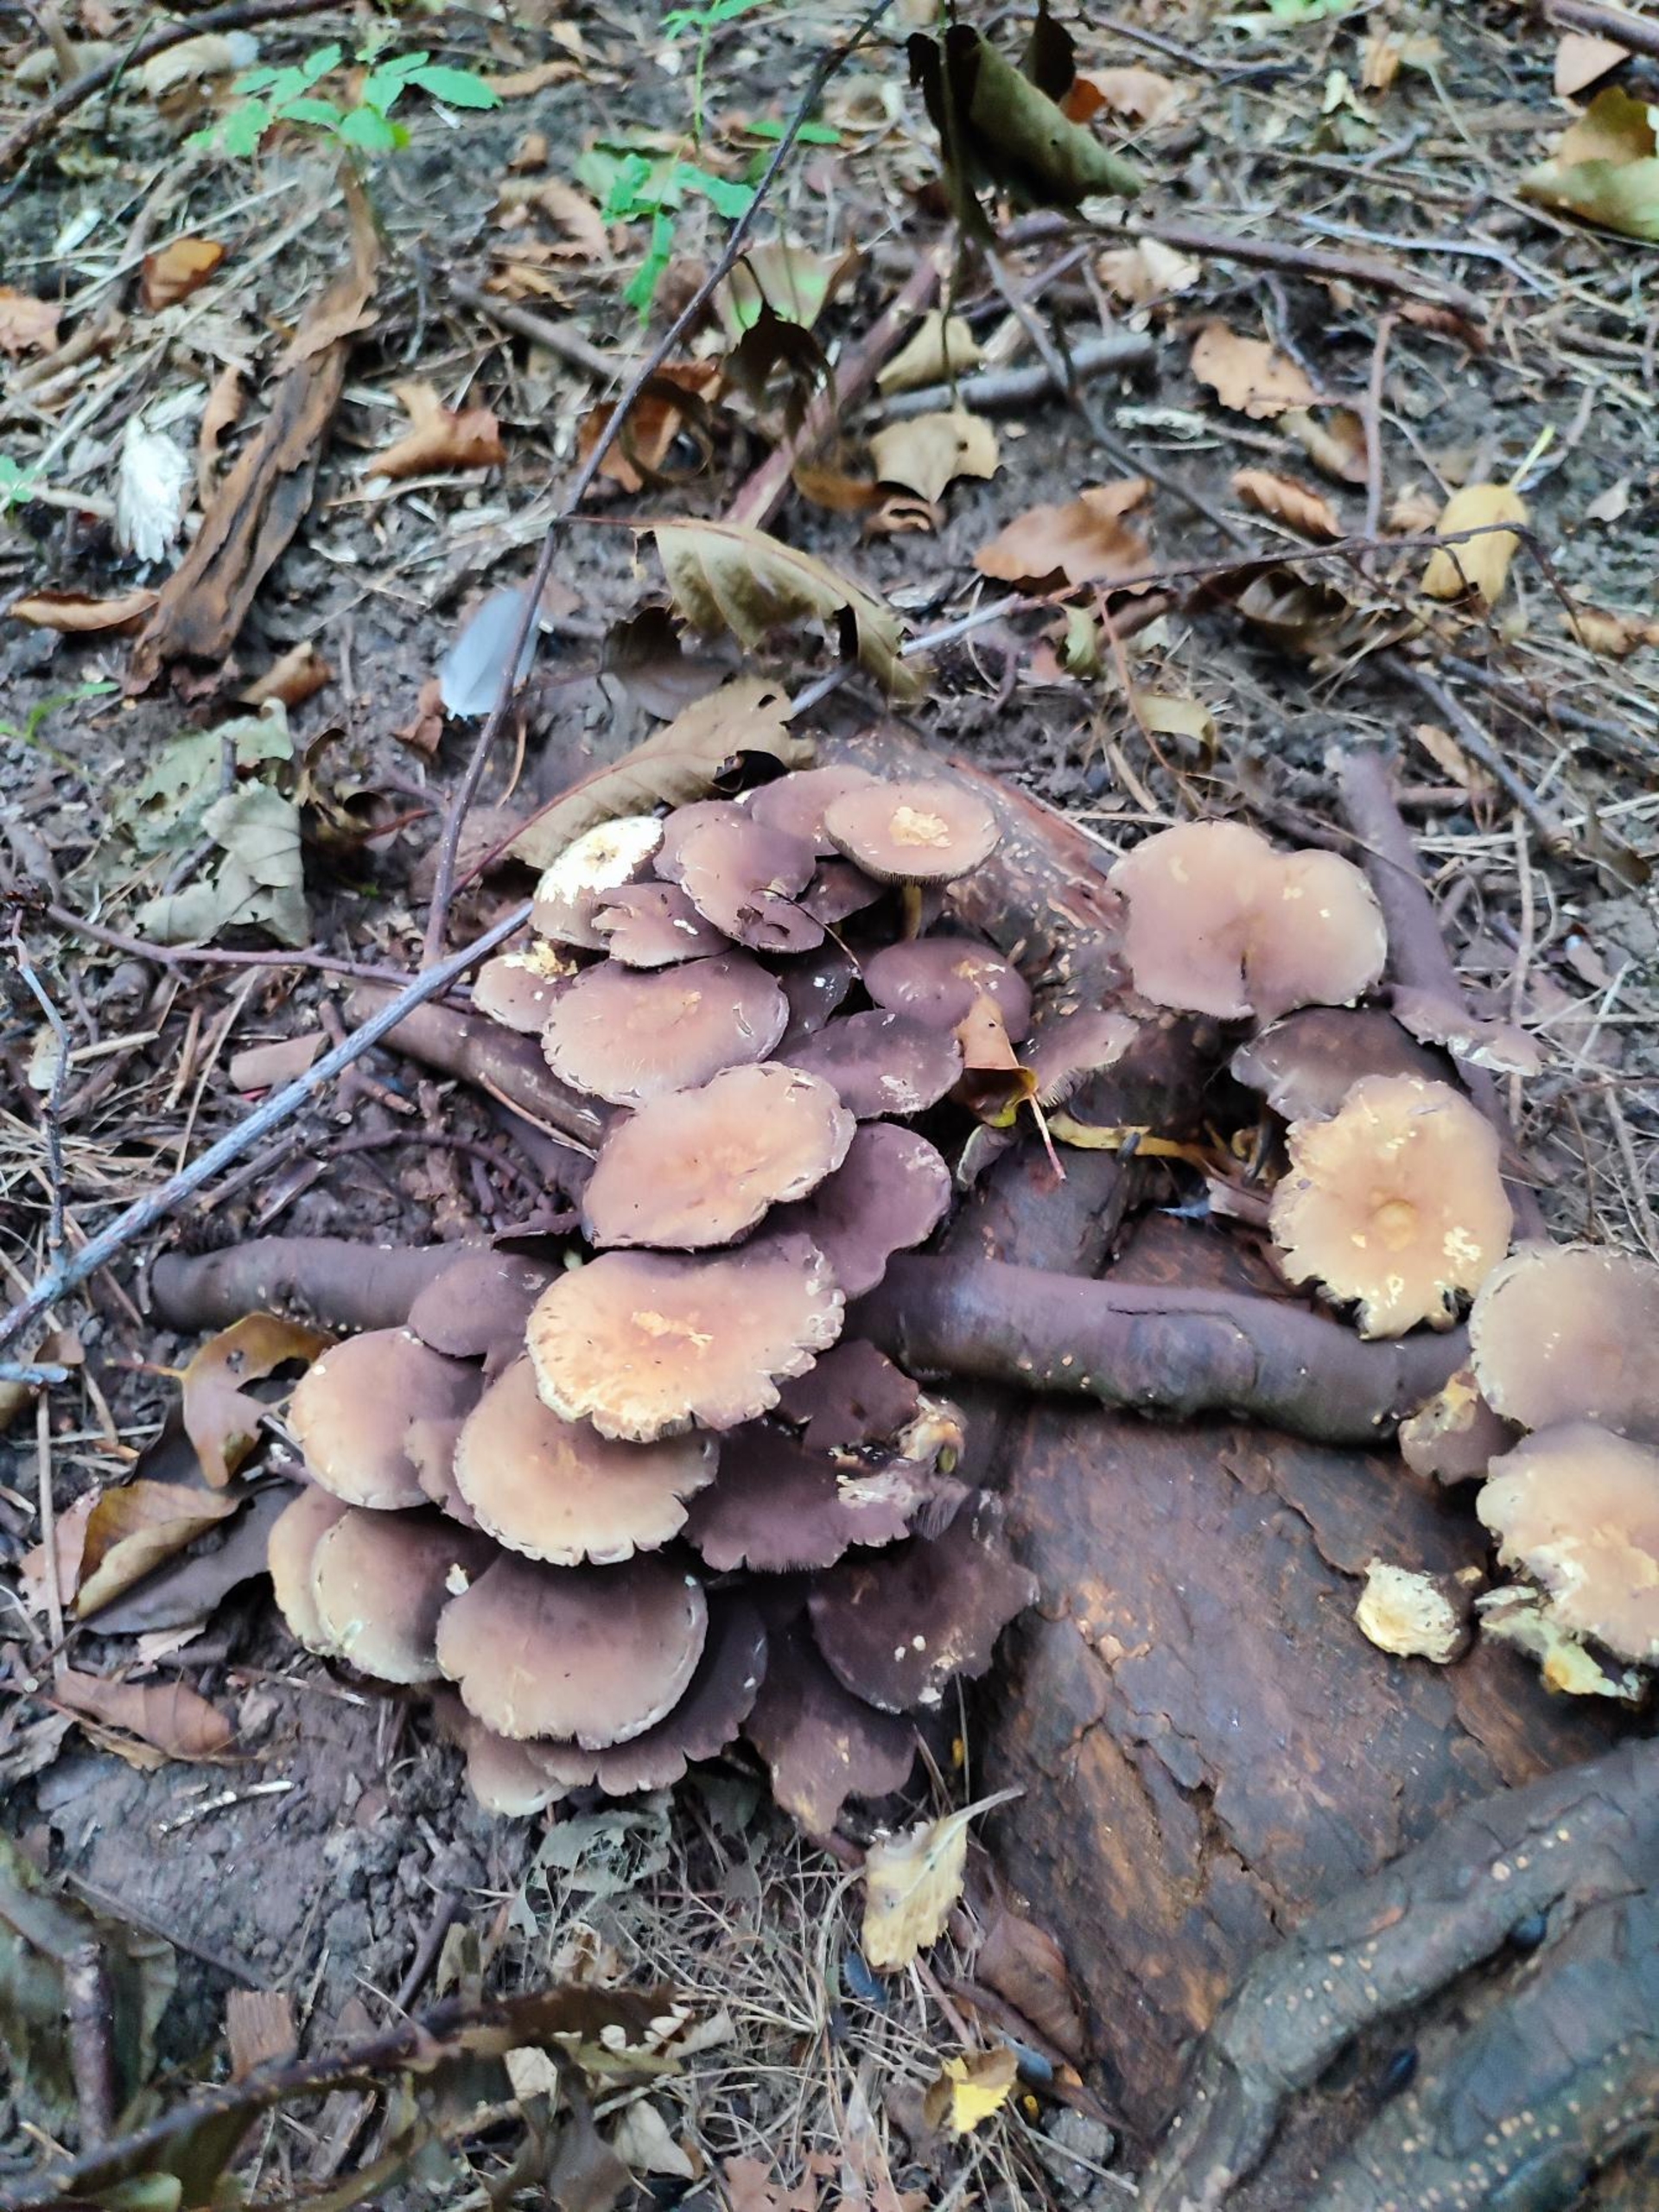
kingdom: Fungi
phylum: Basidiomycota
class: Agaricomycetes
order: Agaricales
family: Strophariaceae
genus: Hypholoma
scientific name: Hypholoma fasciculare
